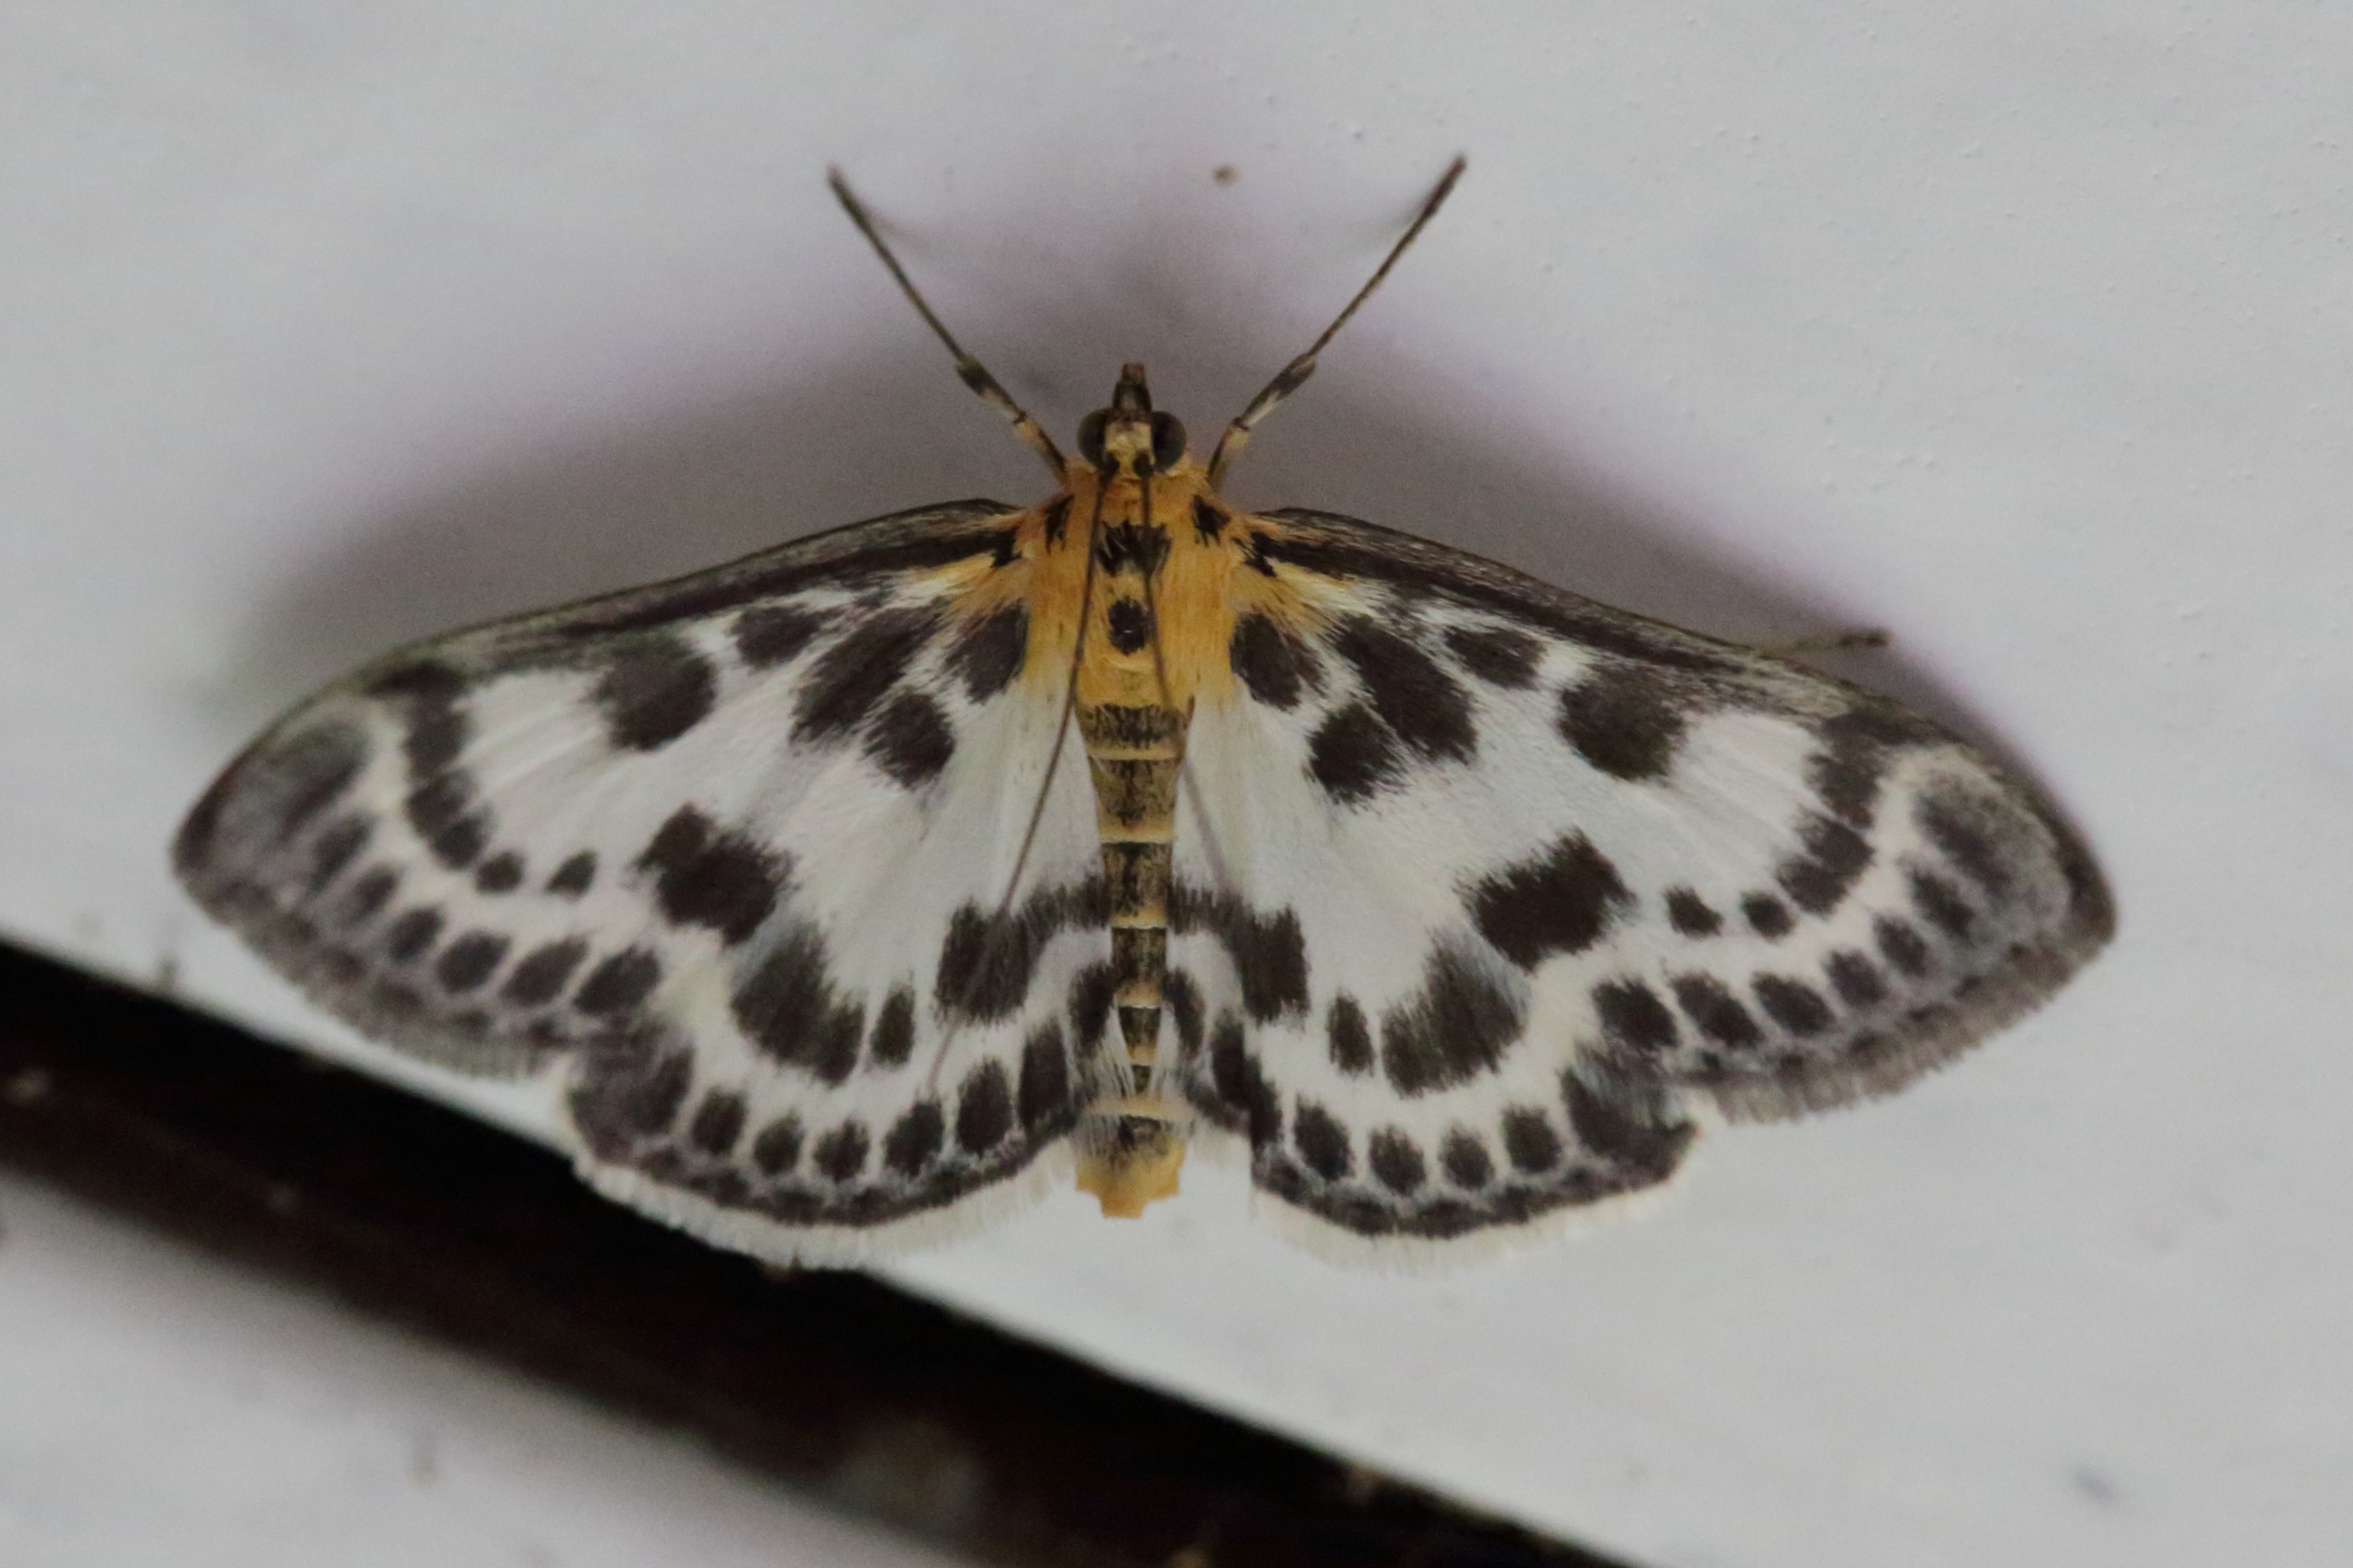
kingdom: Animalia
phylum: Arthropoda
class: Insecta
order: Lepidoptera
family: Crambidae
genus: Anania
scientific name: Anania hortulata
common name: Nældehalvmøl
